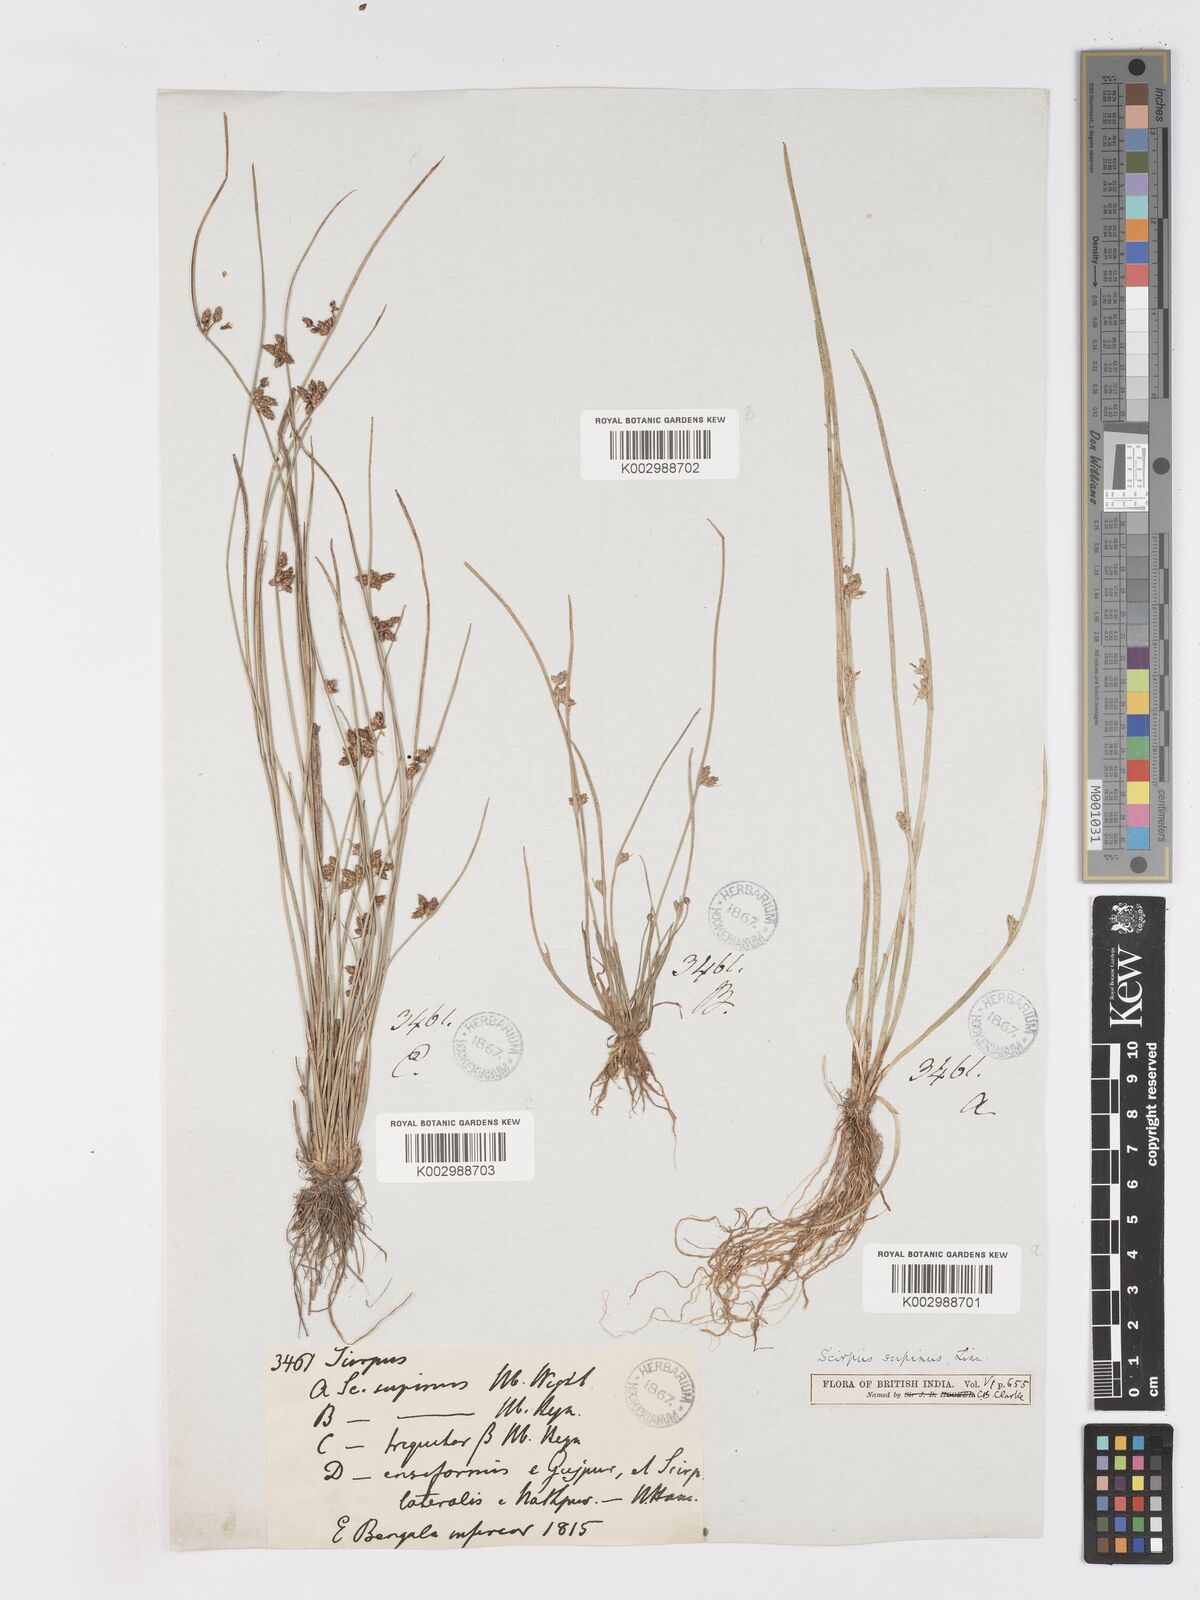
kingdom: Plantae
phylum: Tracheophyta
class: Liliopsida
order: Poales
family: Cyperaceae
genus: Schoenoplectiella
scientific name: Schoenoplectiella lateriflora
